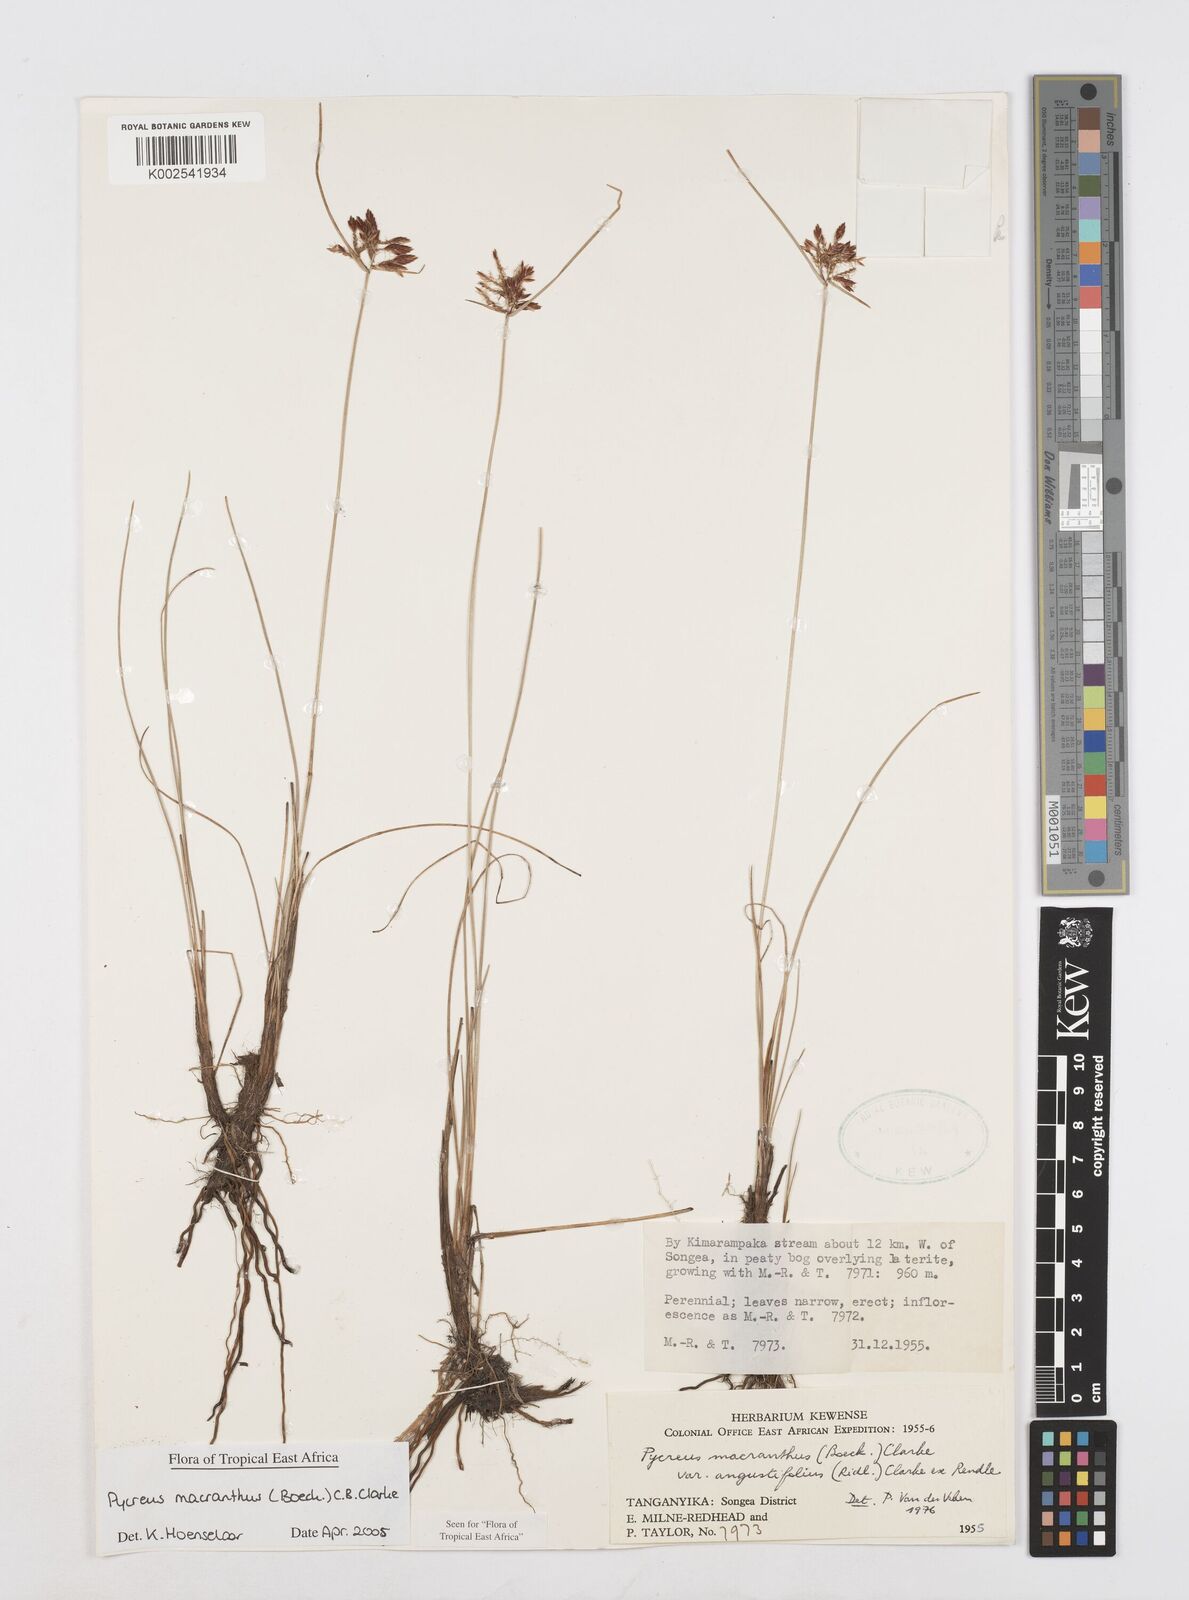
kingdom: Plantae
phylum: Tracheophyta
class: Liliopsida
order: Poales
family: Cyperaceae
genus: Cyperus
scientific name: Cyperus nigricans
